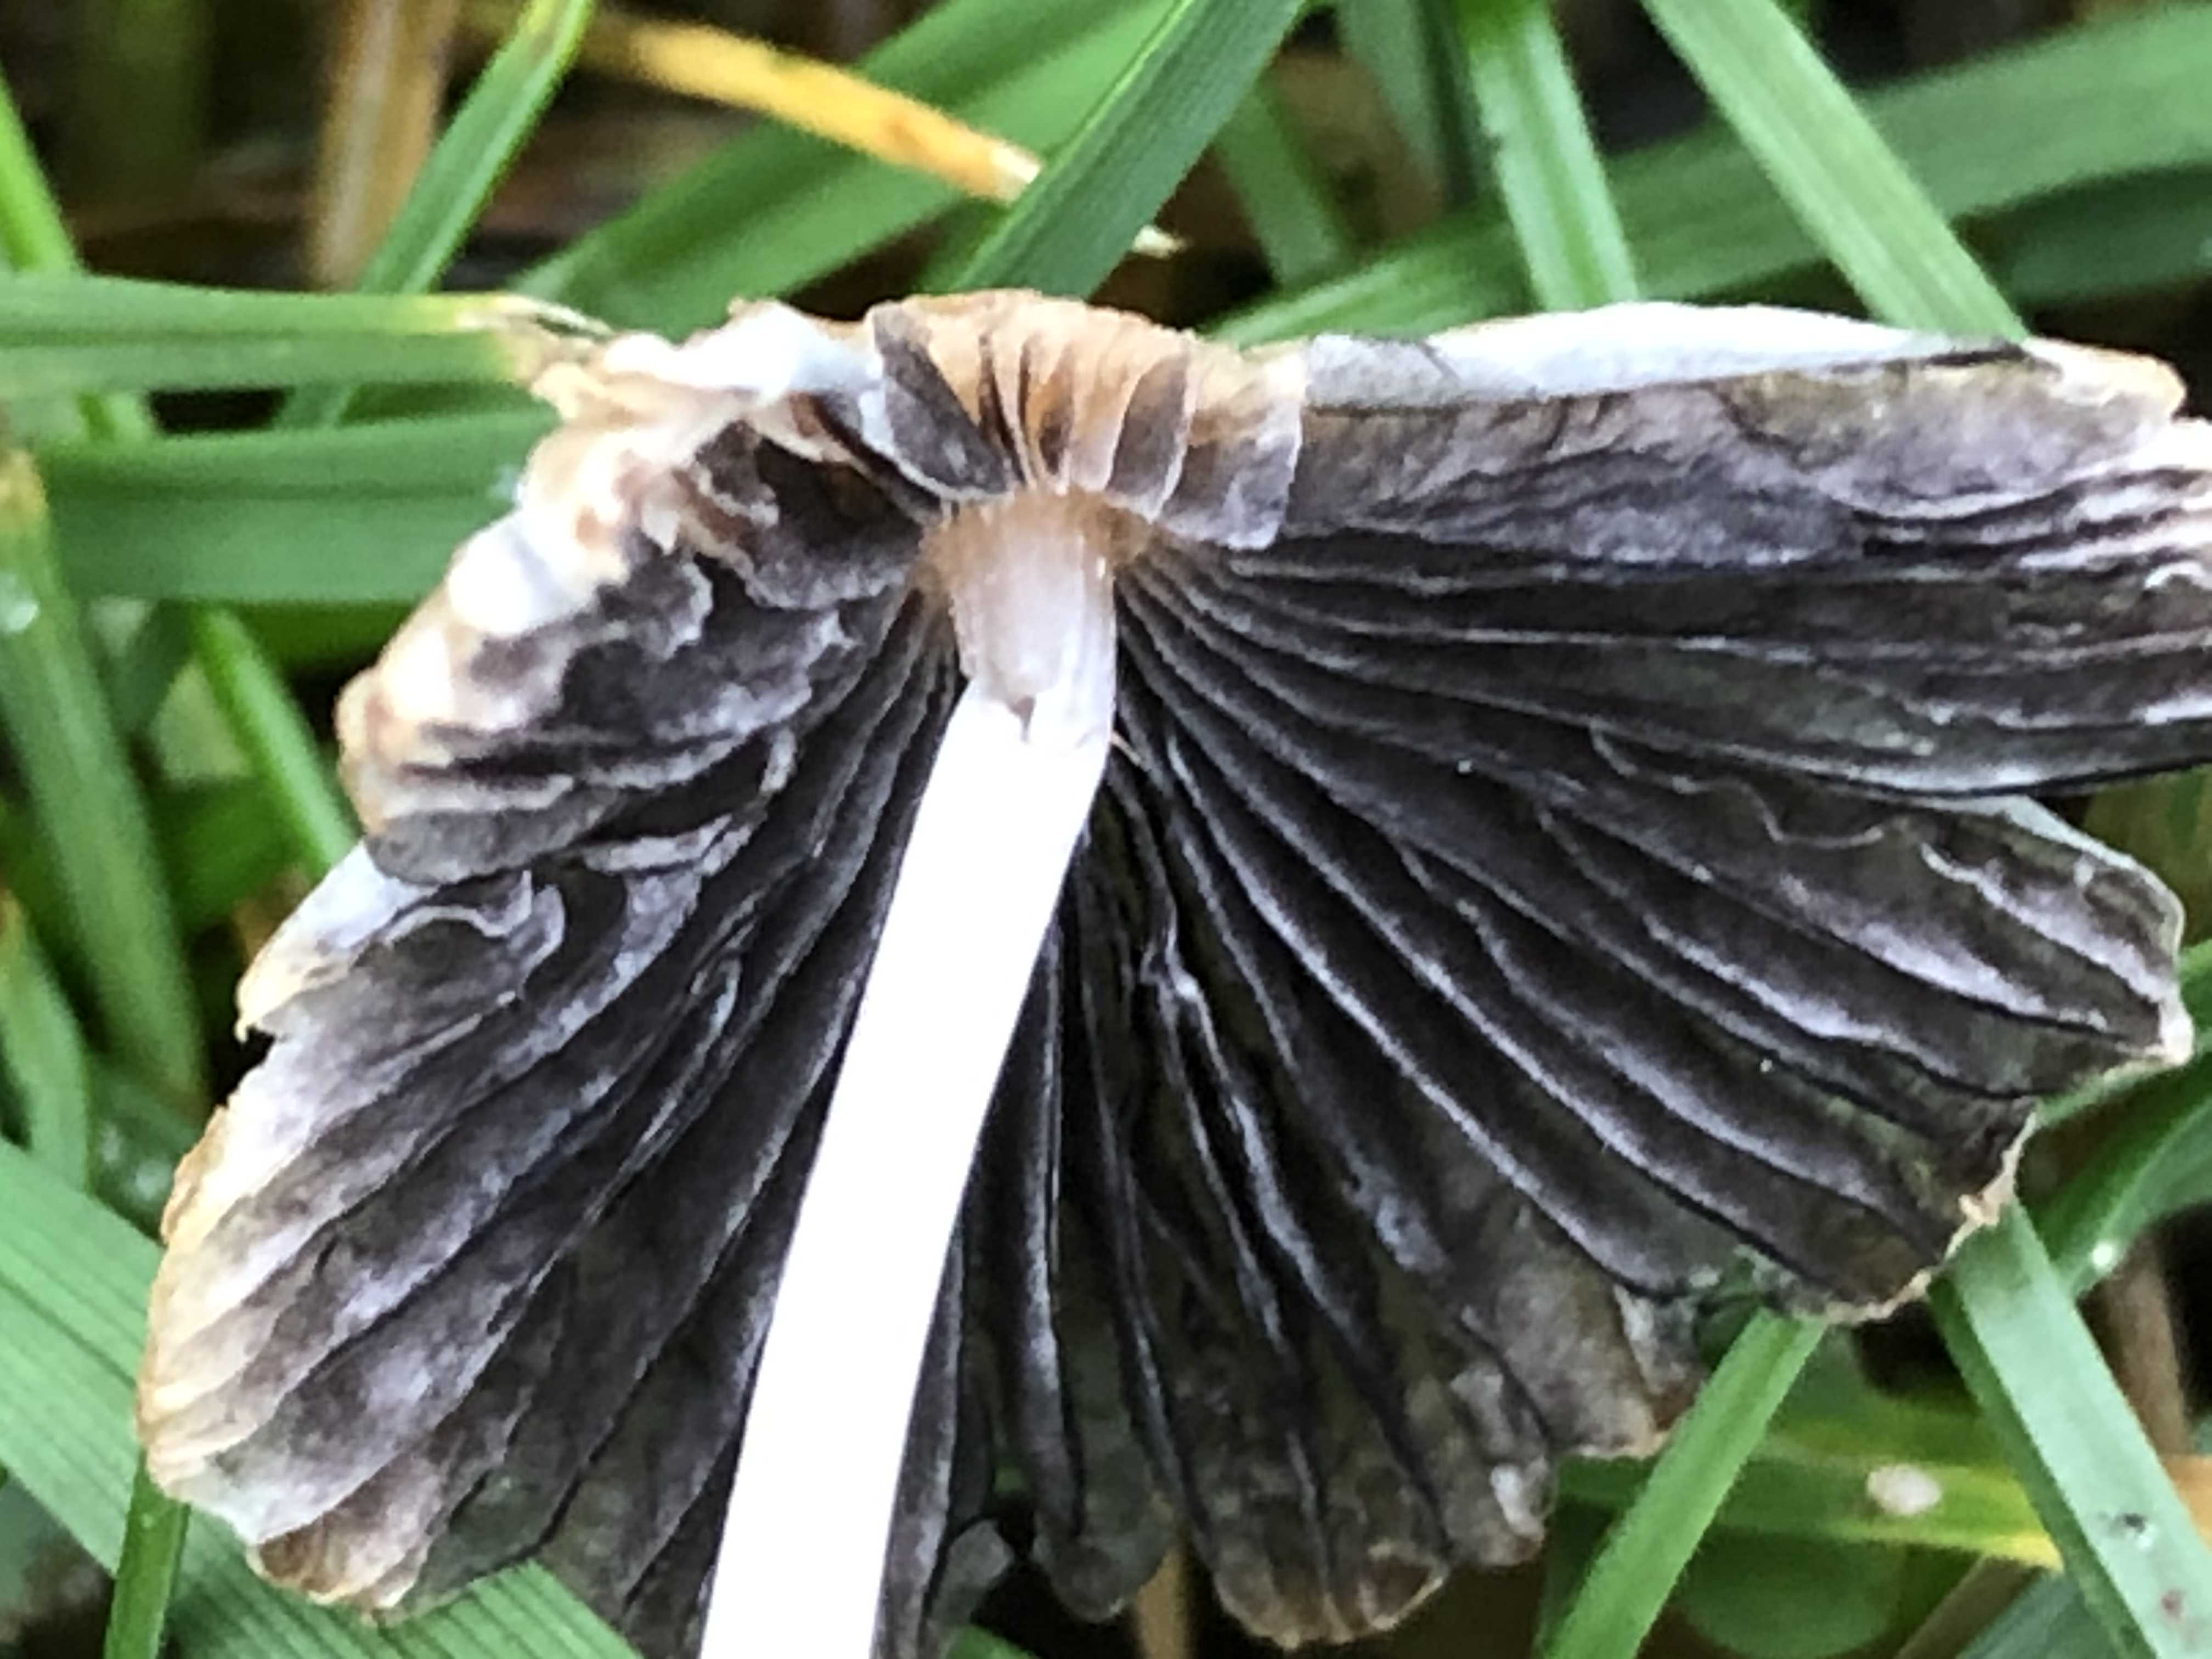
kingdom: Fungi
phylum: Basidiomycota
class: Agaricomycetes
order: Agaricales
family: Psathyrellaceae
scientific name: Psathyrellaceae
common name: mørkhatfamilien
